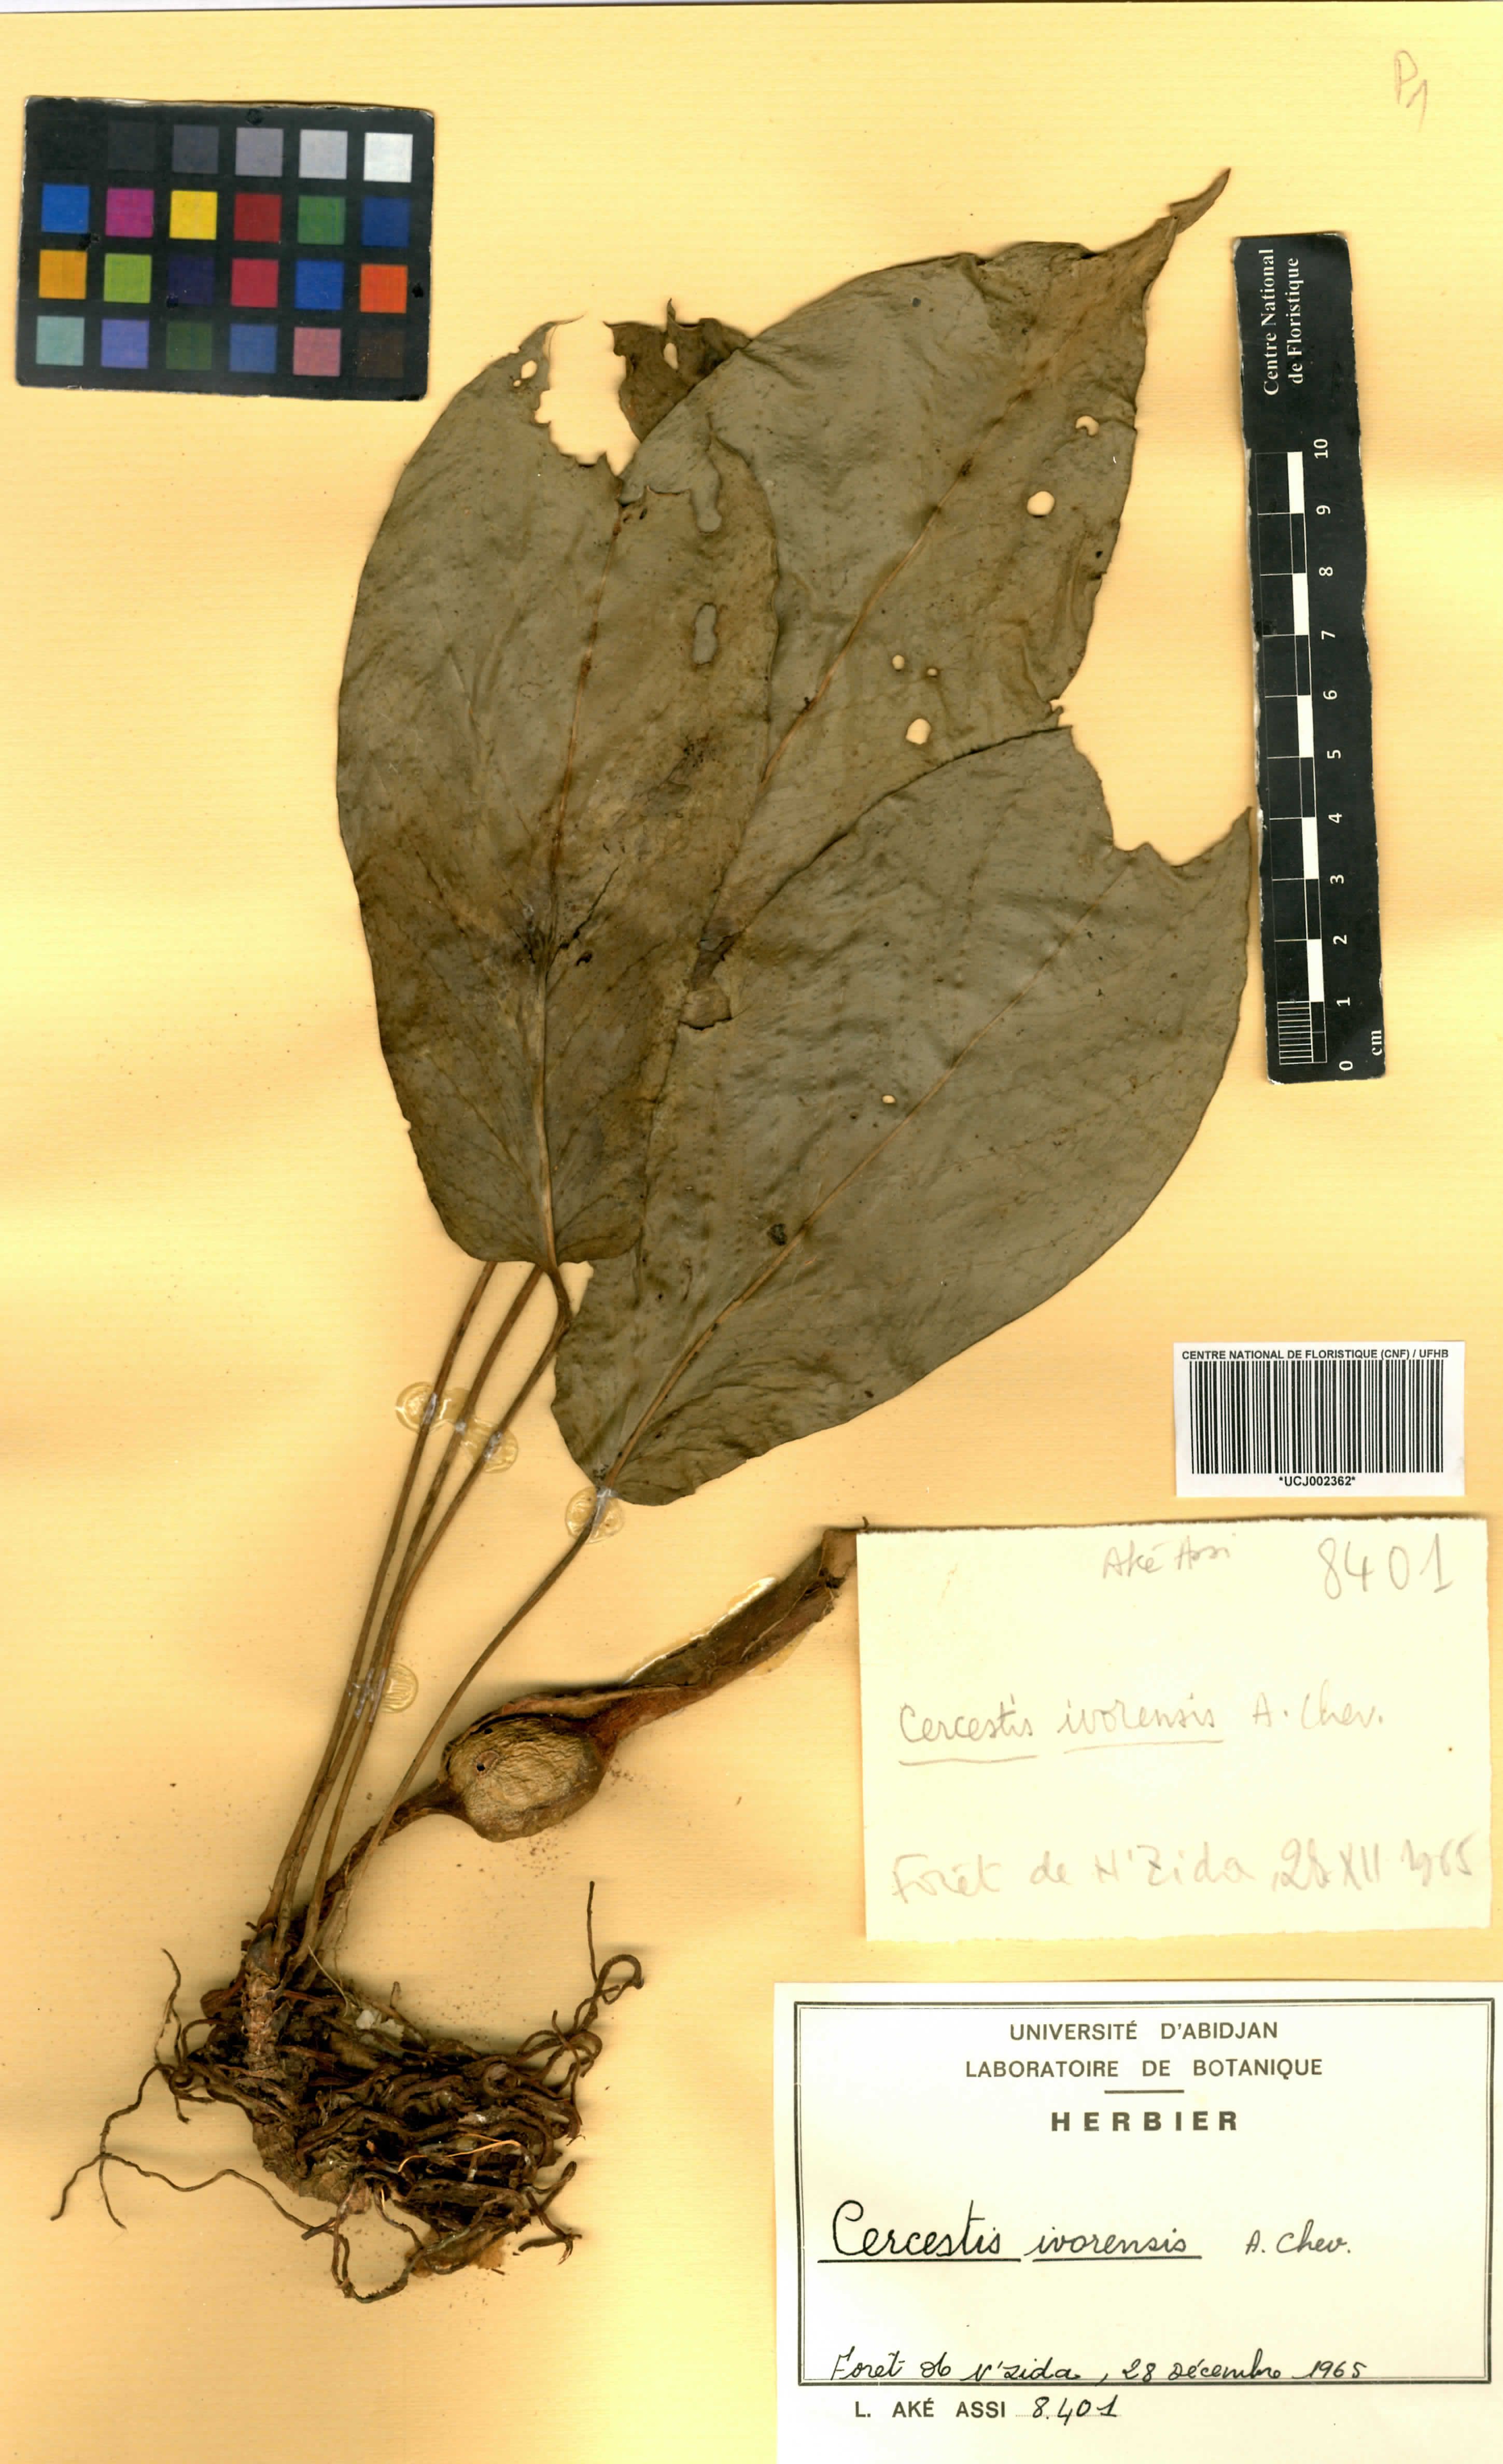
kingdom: Plantae
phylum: Tracheophyta
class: Liliopsida
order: Alismatales
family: Araceae
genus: Cercestis
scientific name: Cercestis ivorensis
